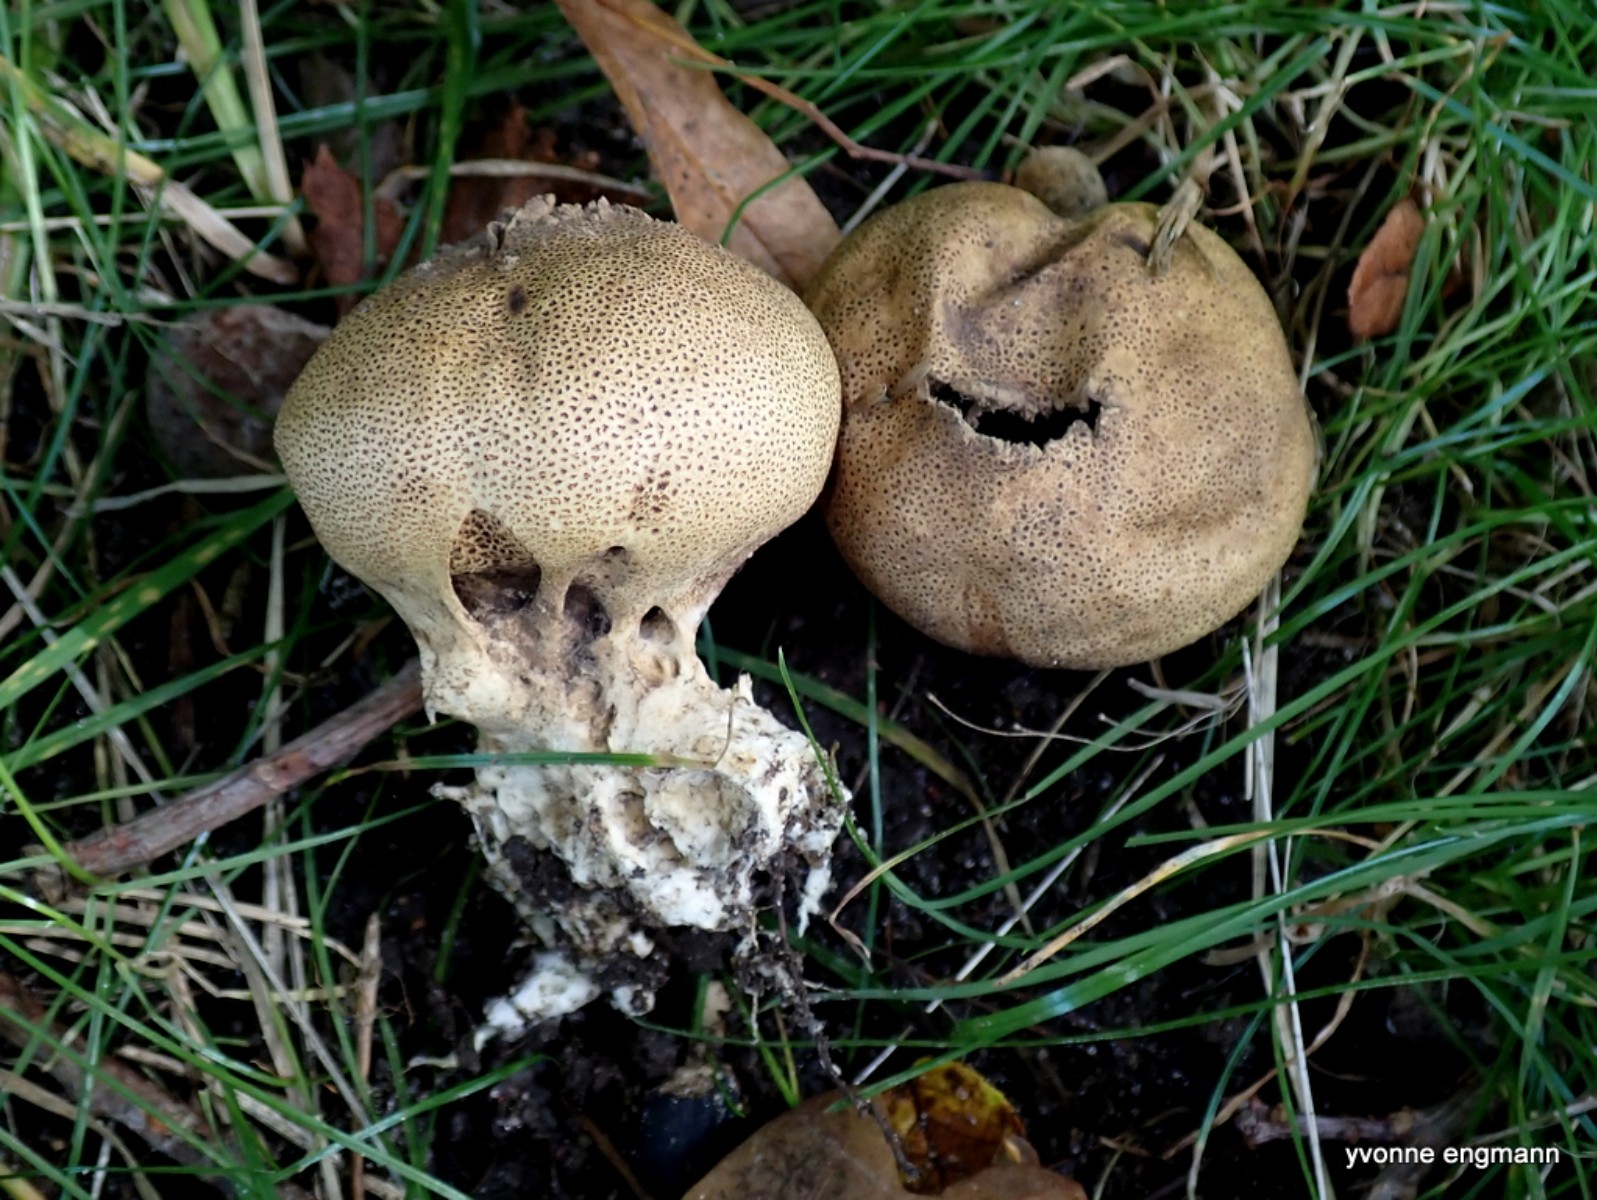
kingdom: Fungi
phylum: Basidiomycota
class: Agaricomycetes
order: Boletales
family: Sclerodermataceae
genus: Scleroderma
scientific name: Scleroderma verrucosum
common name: stilket bruskbold
